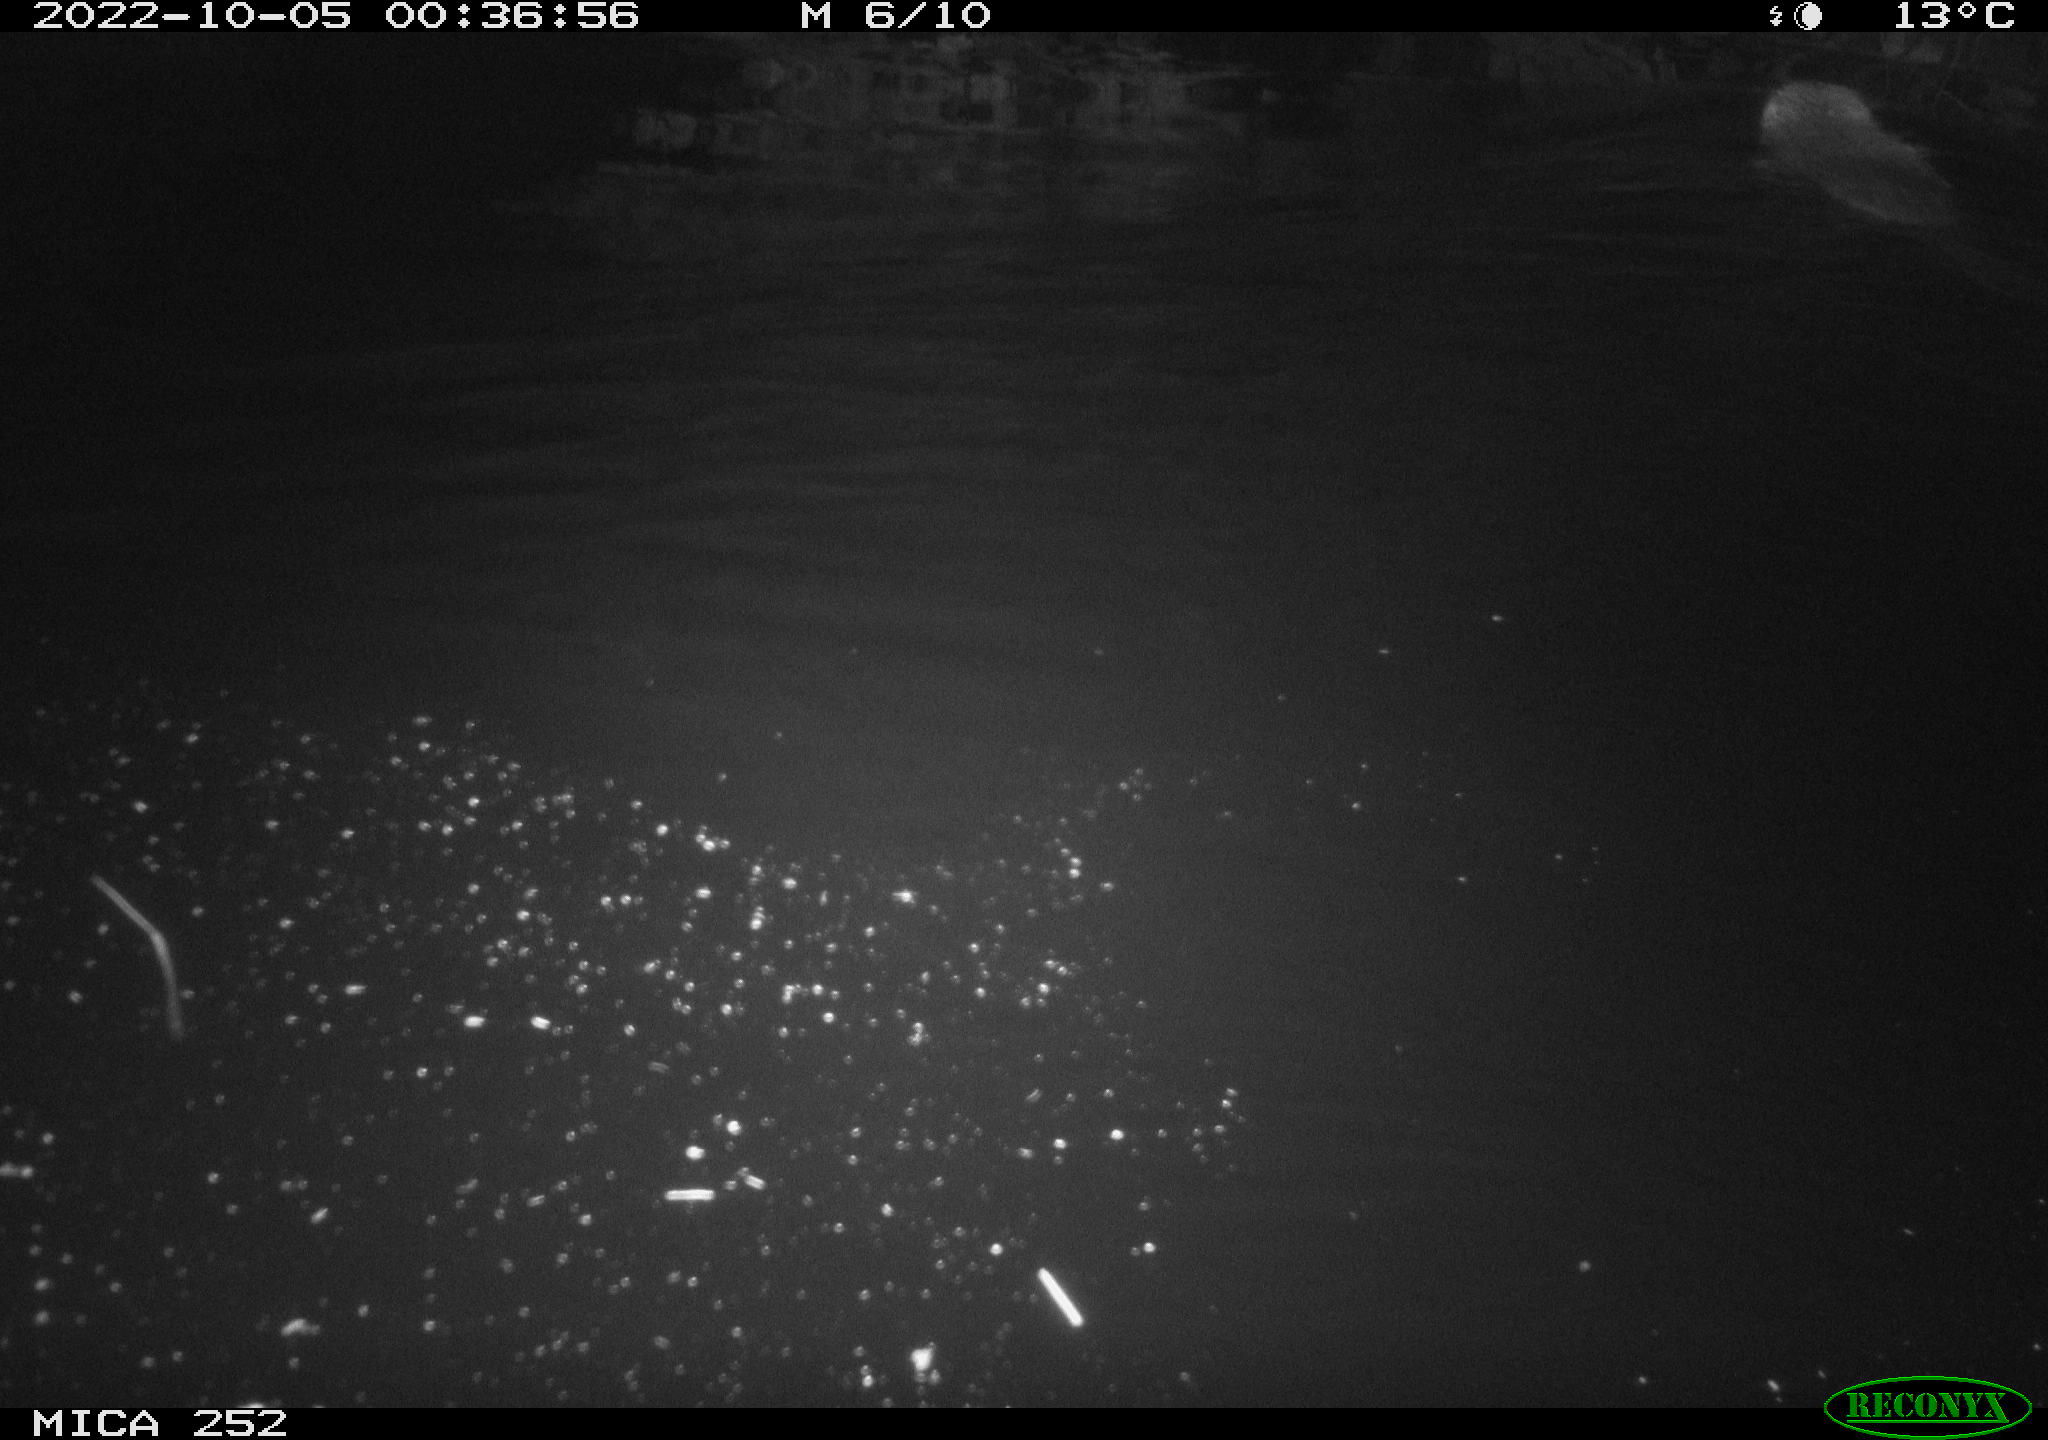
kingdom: Animalia
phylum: Chordata
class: Mammalia
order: Rodentia
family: Castoridae
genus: Castor
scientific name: Castor fiber
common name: Eurasian beaver
